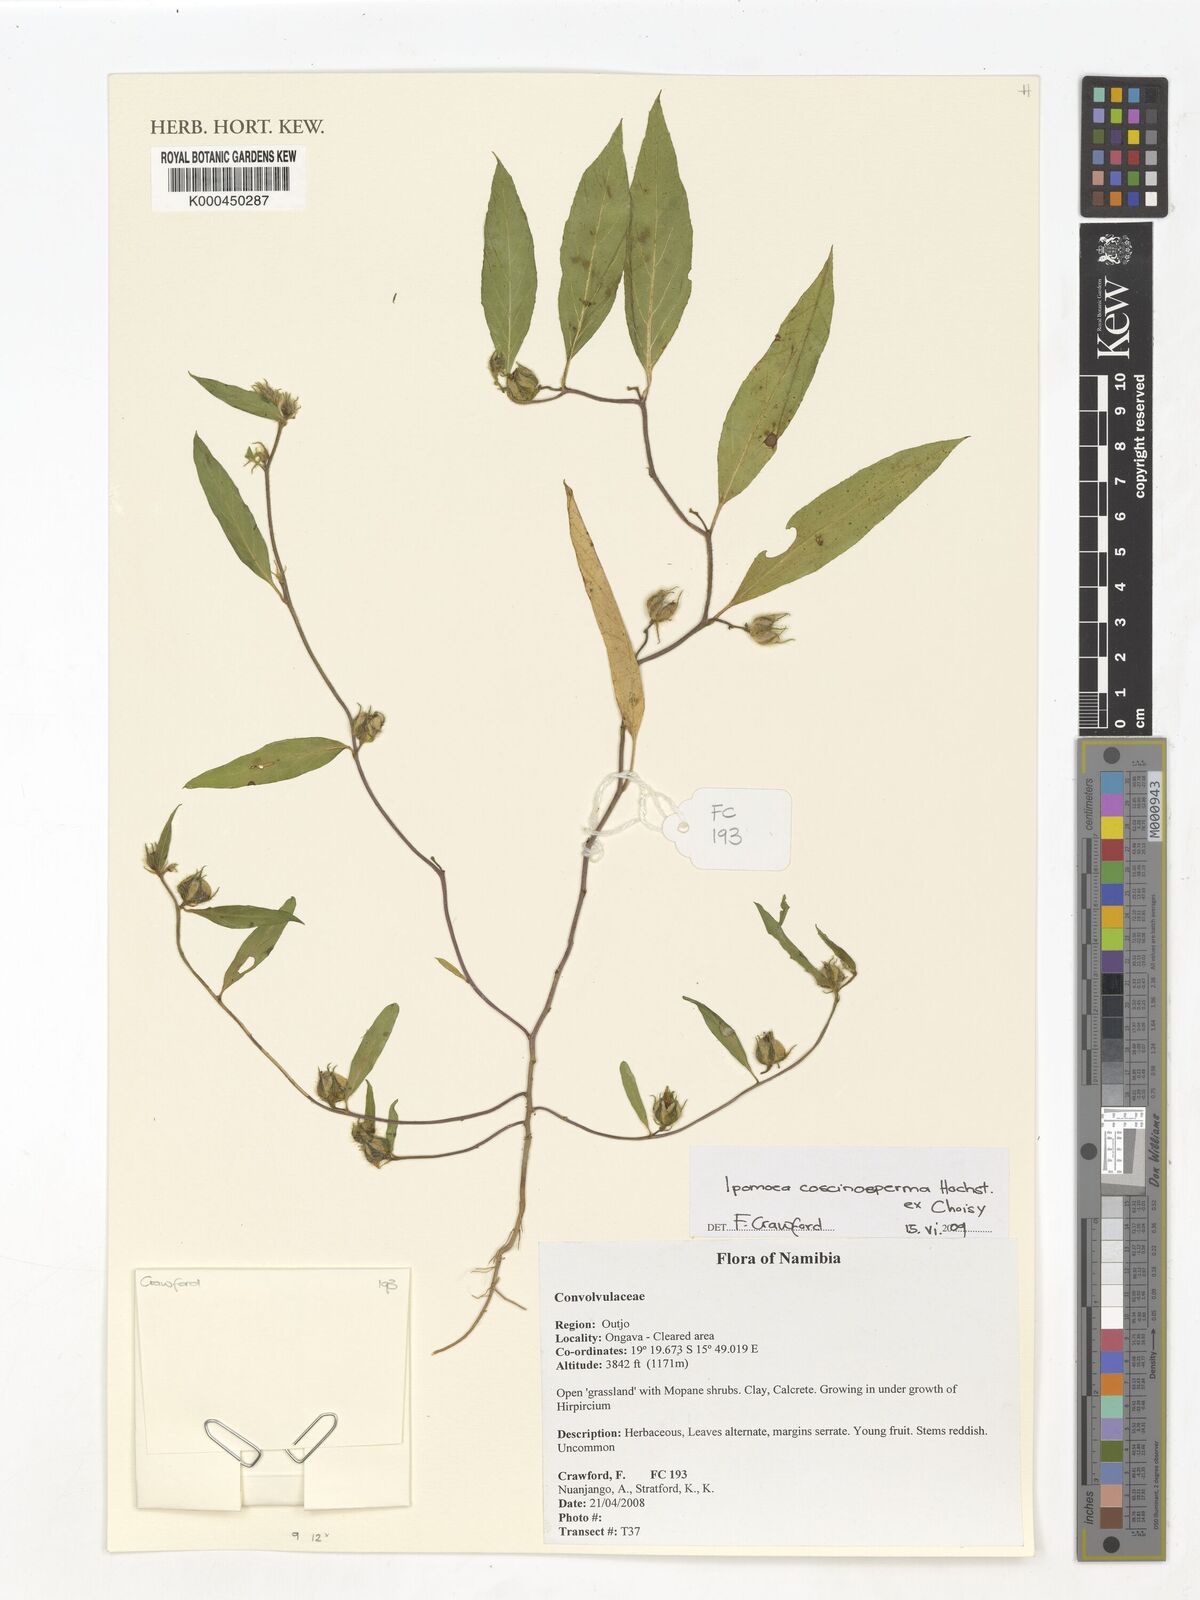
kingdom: Plantae
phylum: Tracheophyta
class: Magnoliopsida
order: Solanales
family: Convolvulaceae
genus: Ipomoea
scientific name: Ipomoea coscinosperma
